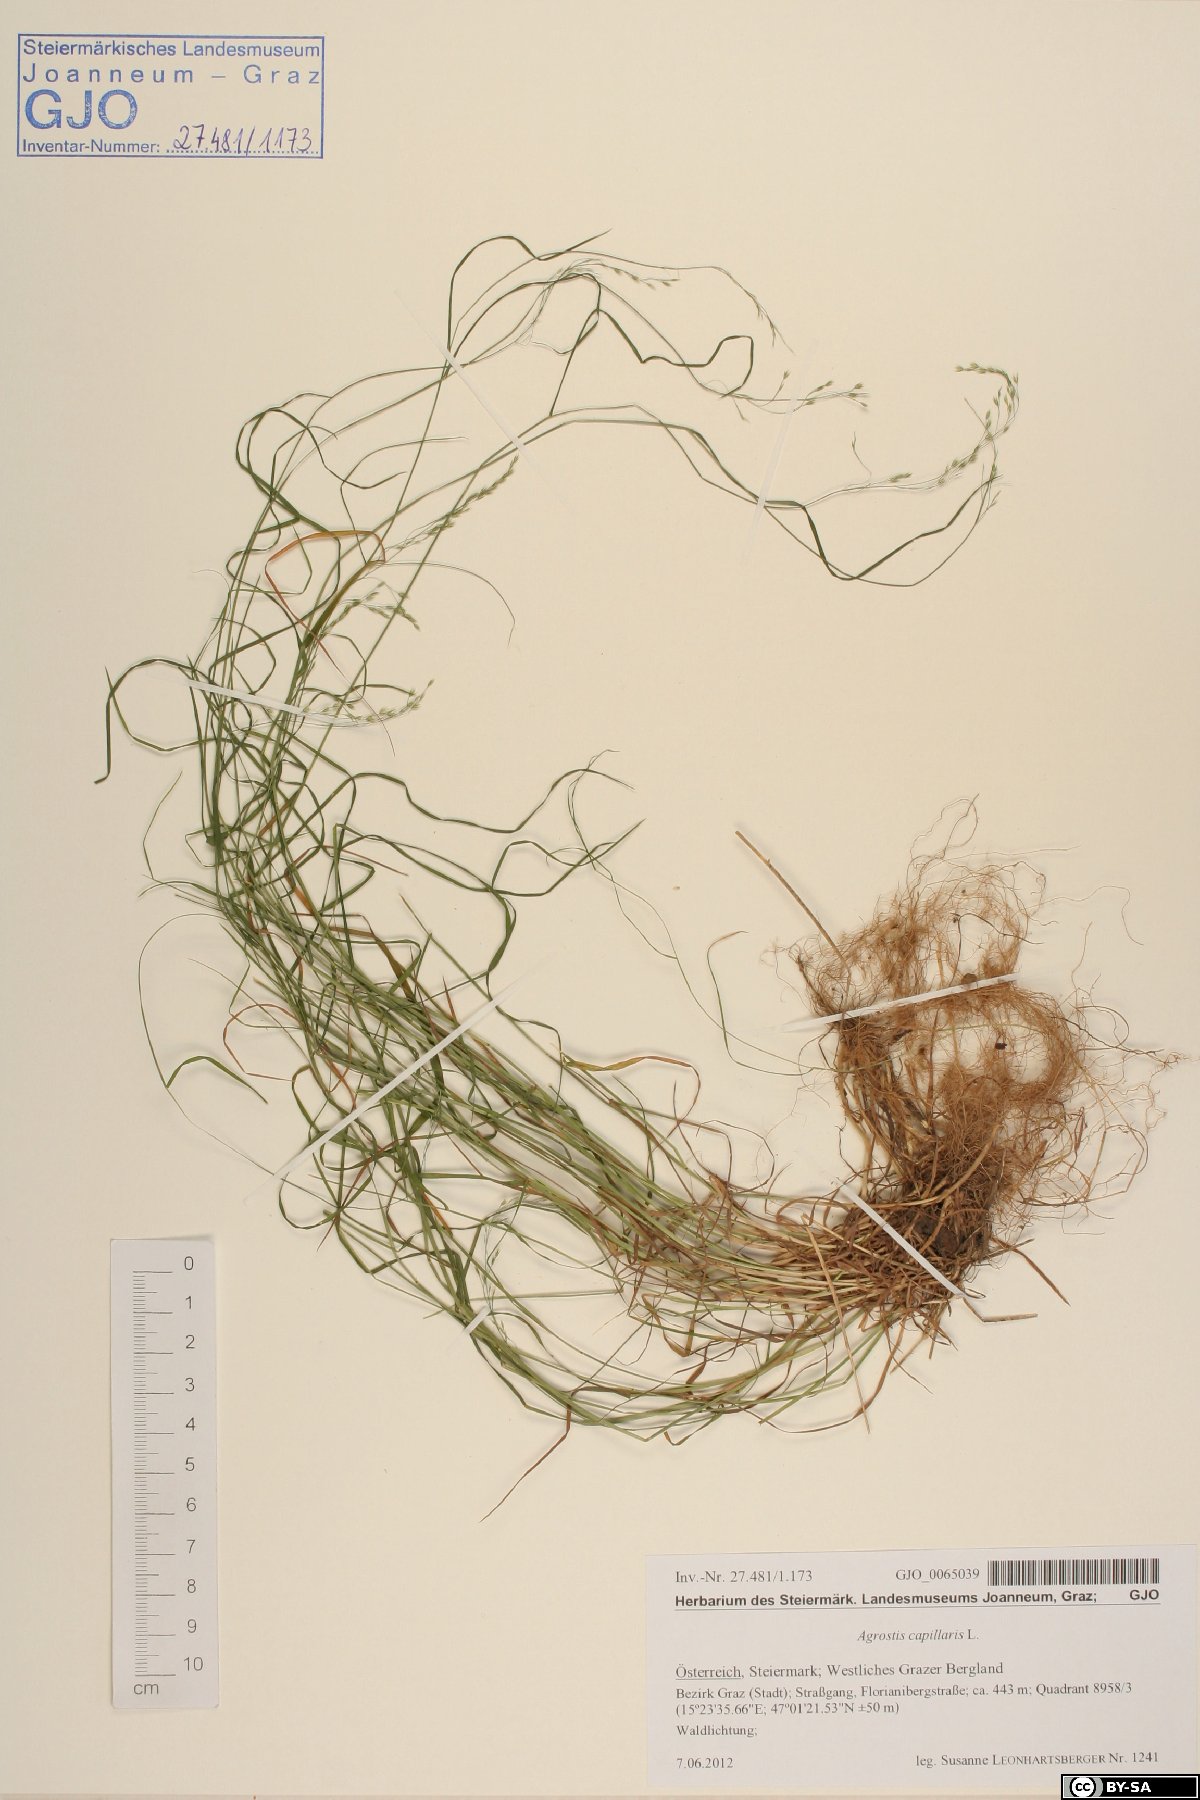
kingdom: Plantae
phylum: Tracheophyta
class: Liliopsida
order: Poales
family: Poaceae
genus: Poa
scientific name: Poa nemoralis
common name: Wood bluegrass
